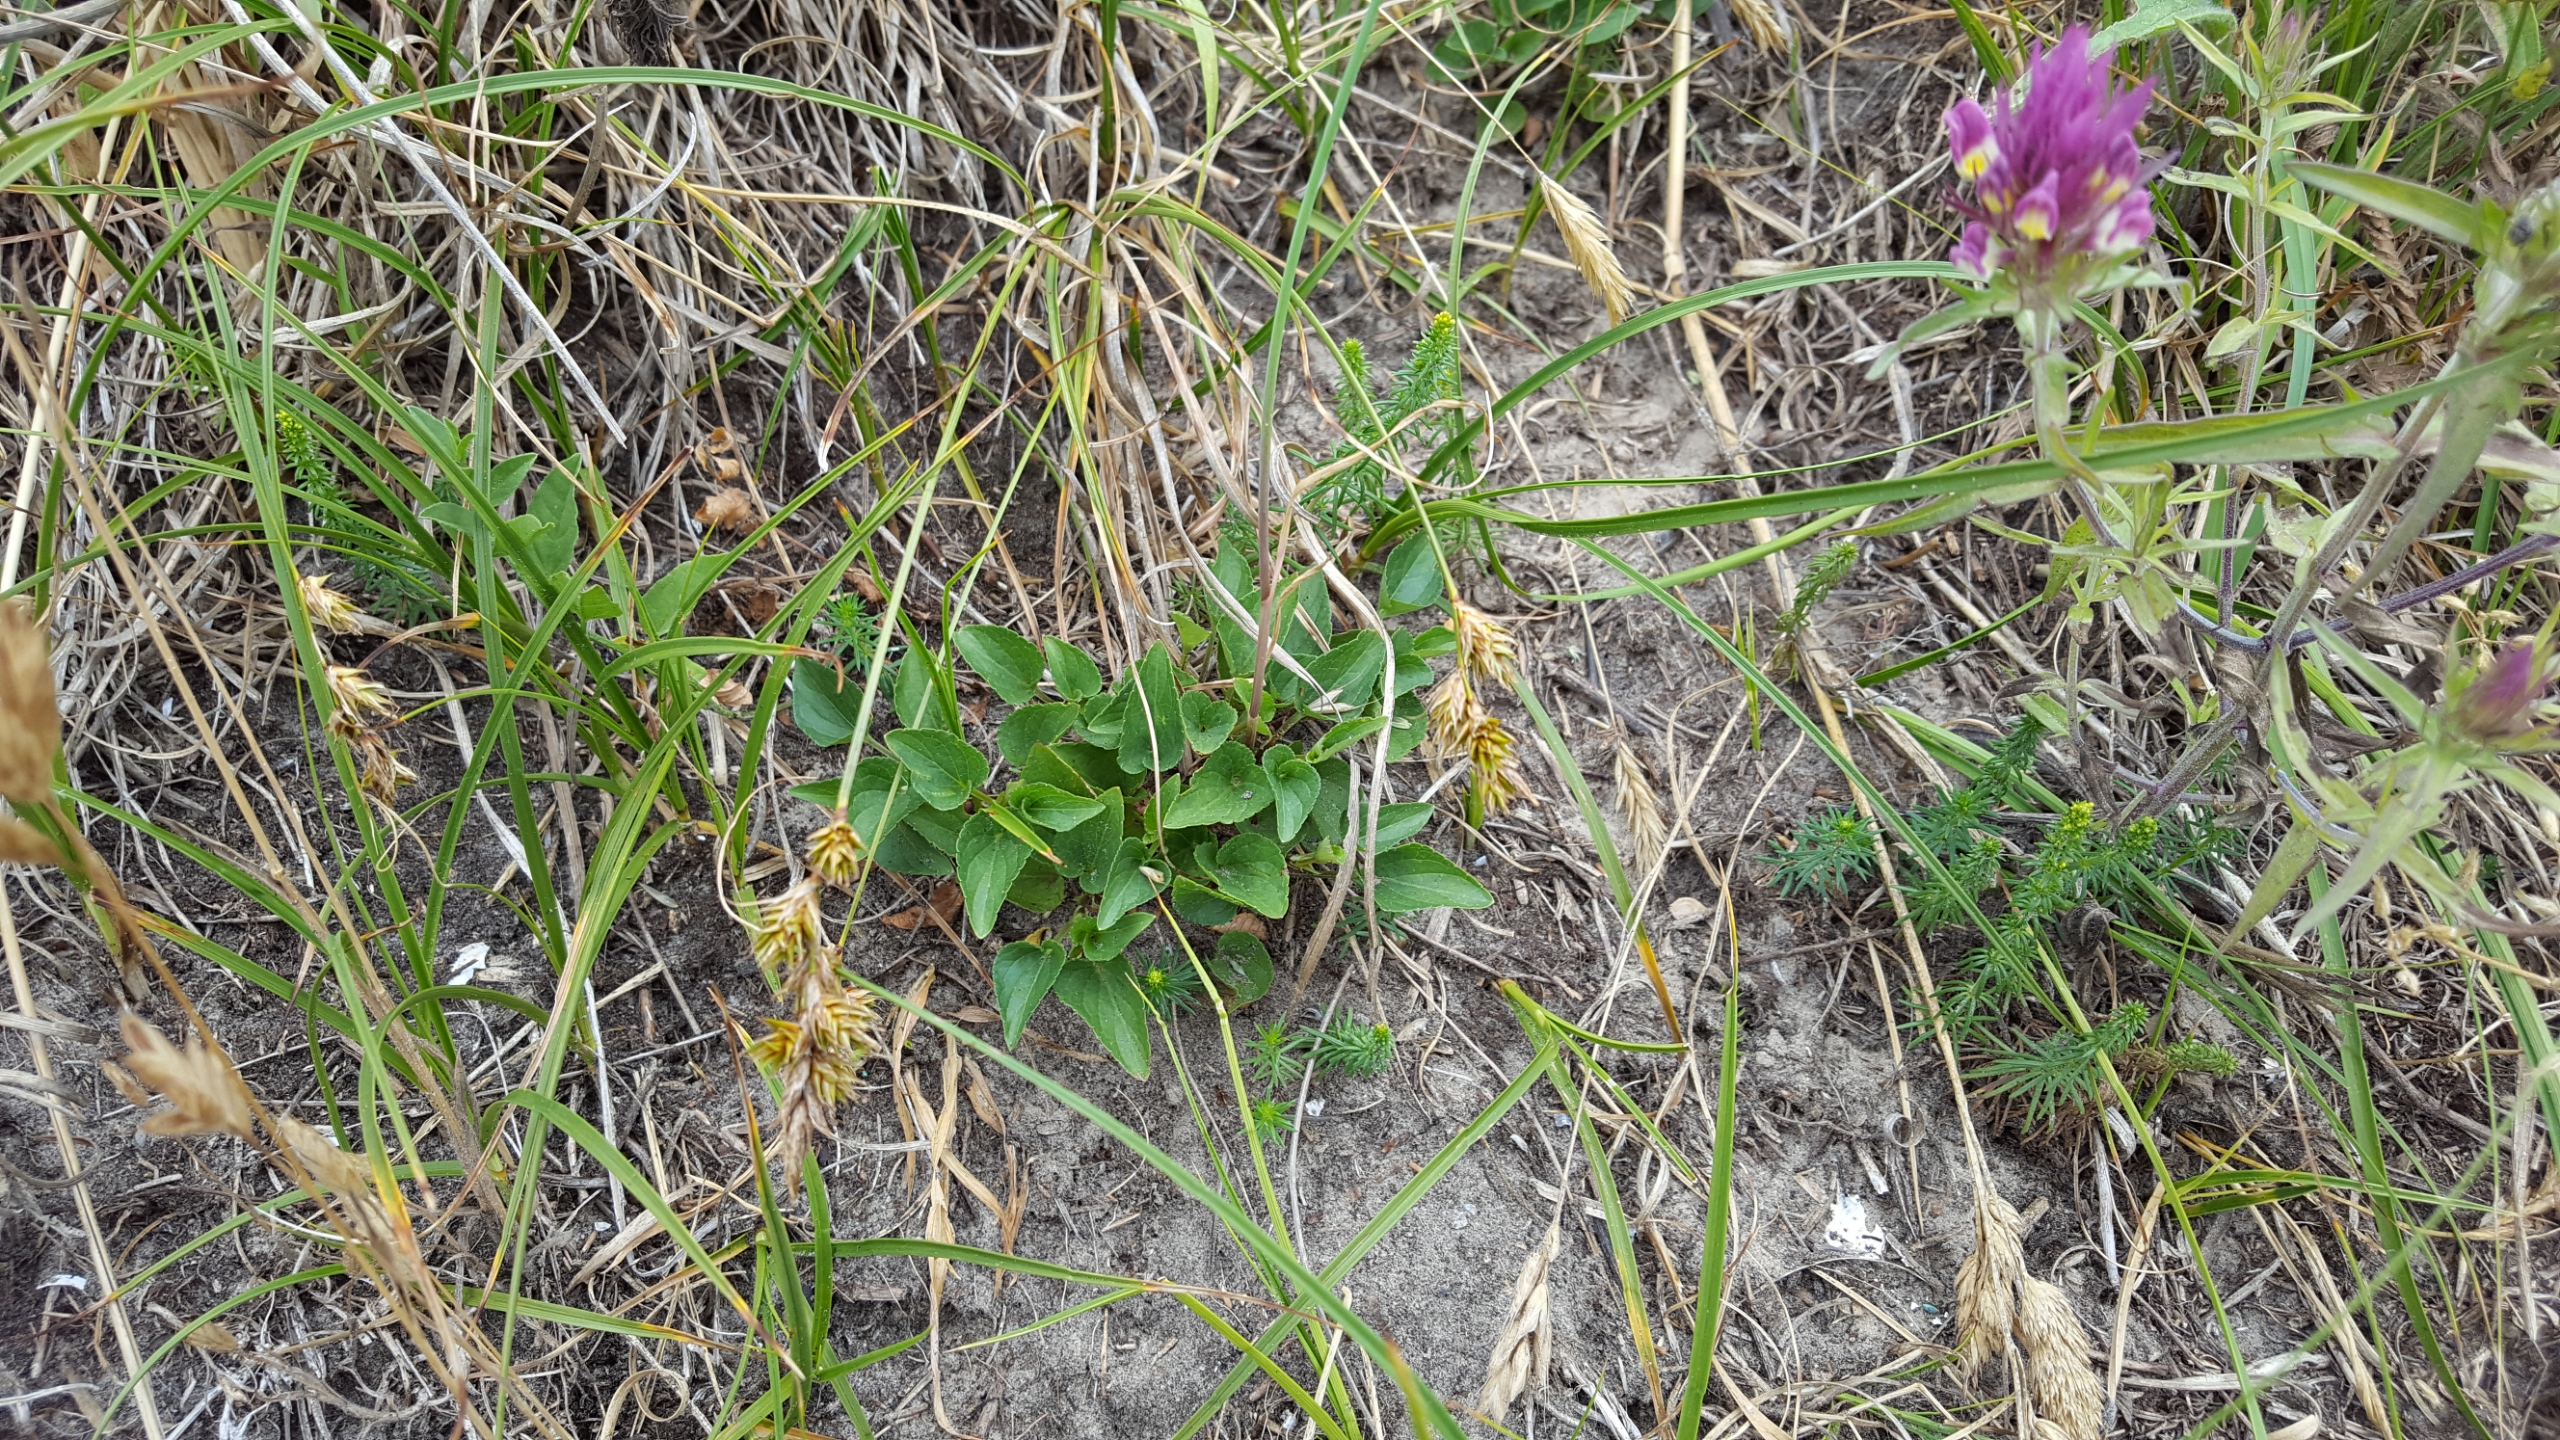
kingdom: Plantae
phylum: Tracheophyta
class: Magnoliopsida
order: Malpighiales
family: Violaceae
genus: Viola
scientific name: Viola canina
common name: Hunde-viol
